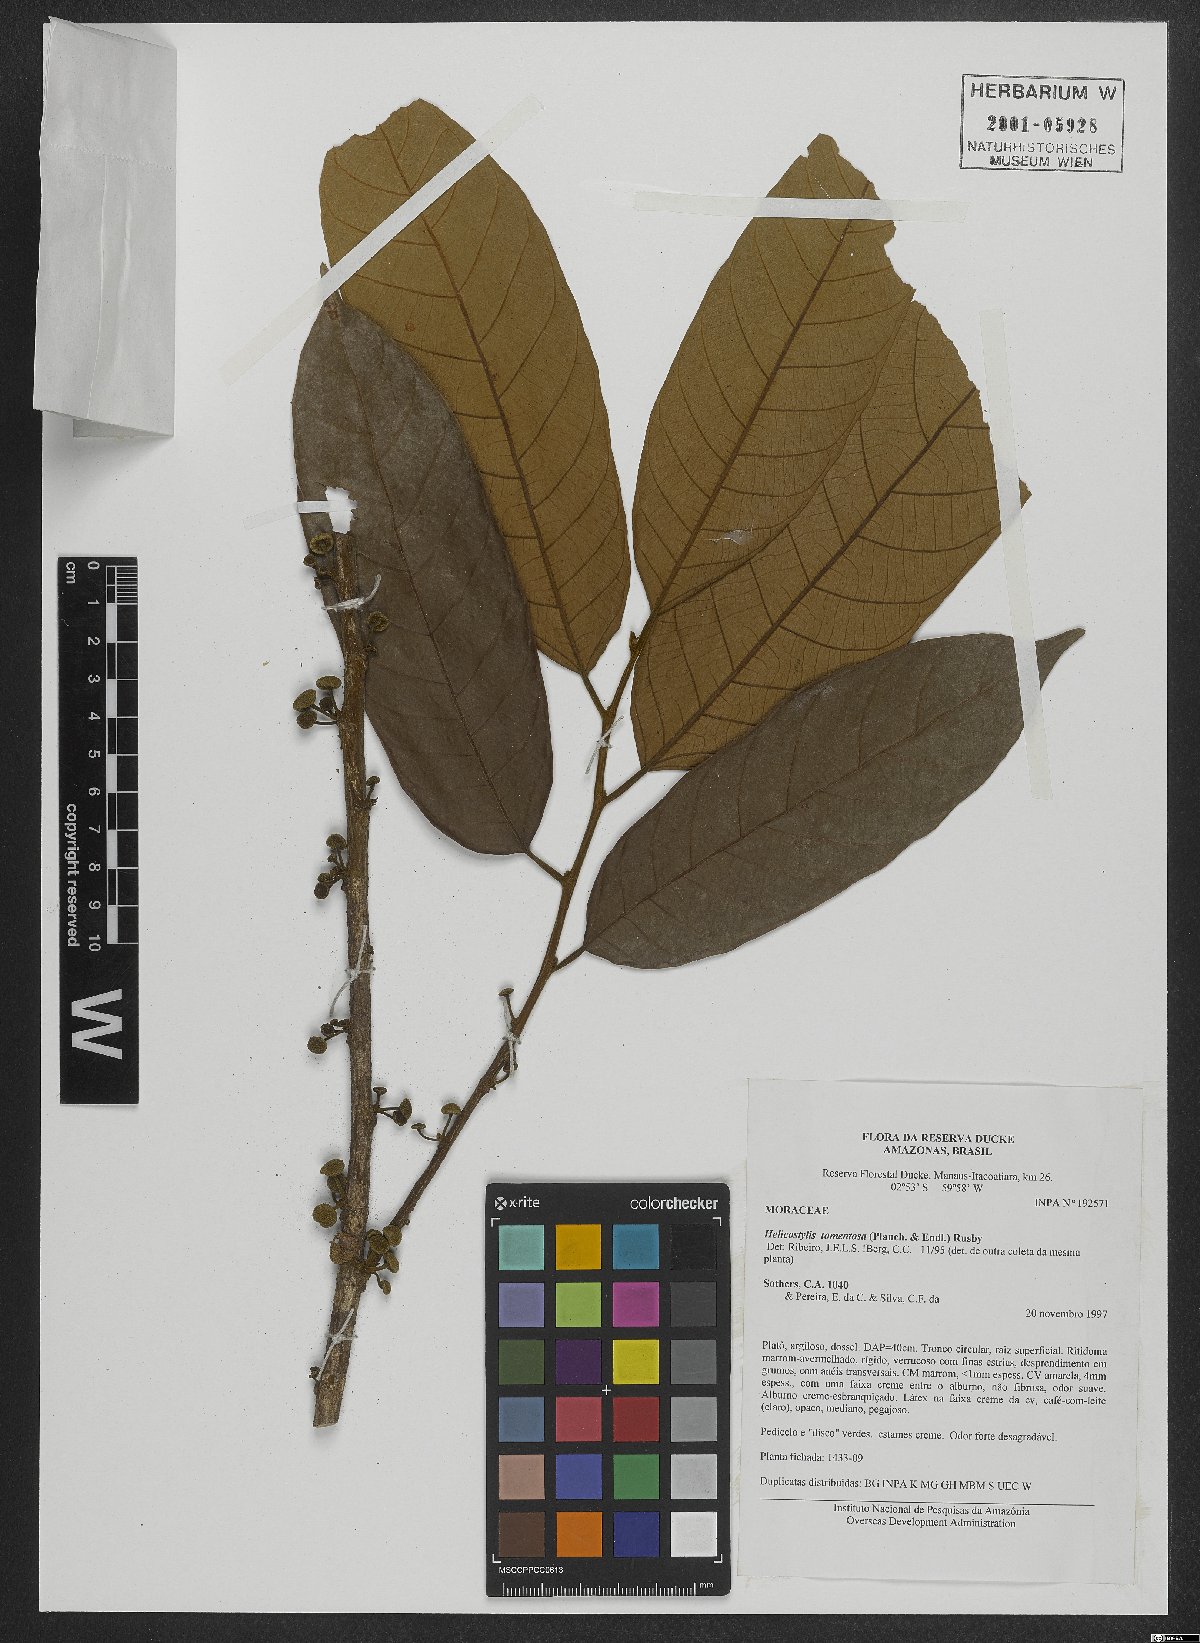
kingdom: Plantae
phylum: Tracheophyta
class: Magnoliopsida
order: Rosales
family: Moraceae
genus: Helicostylis
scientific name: Helicostylis tomentosa
